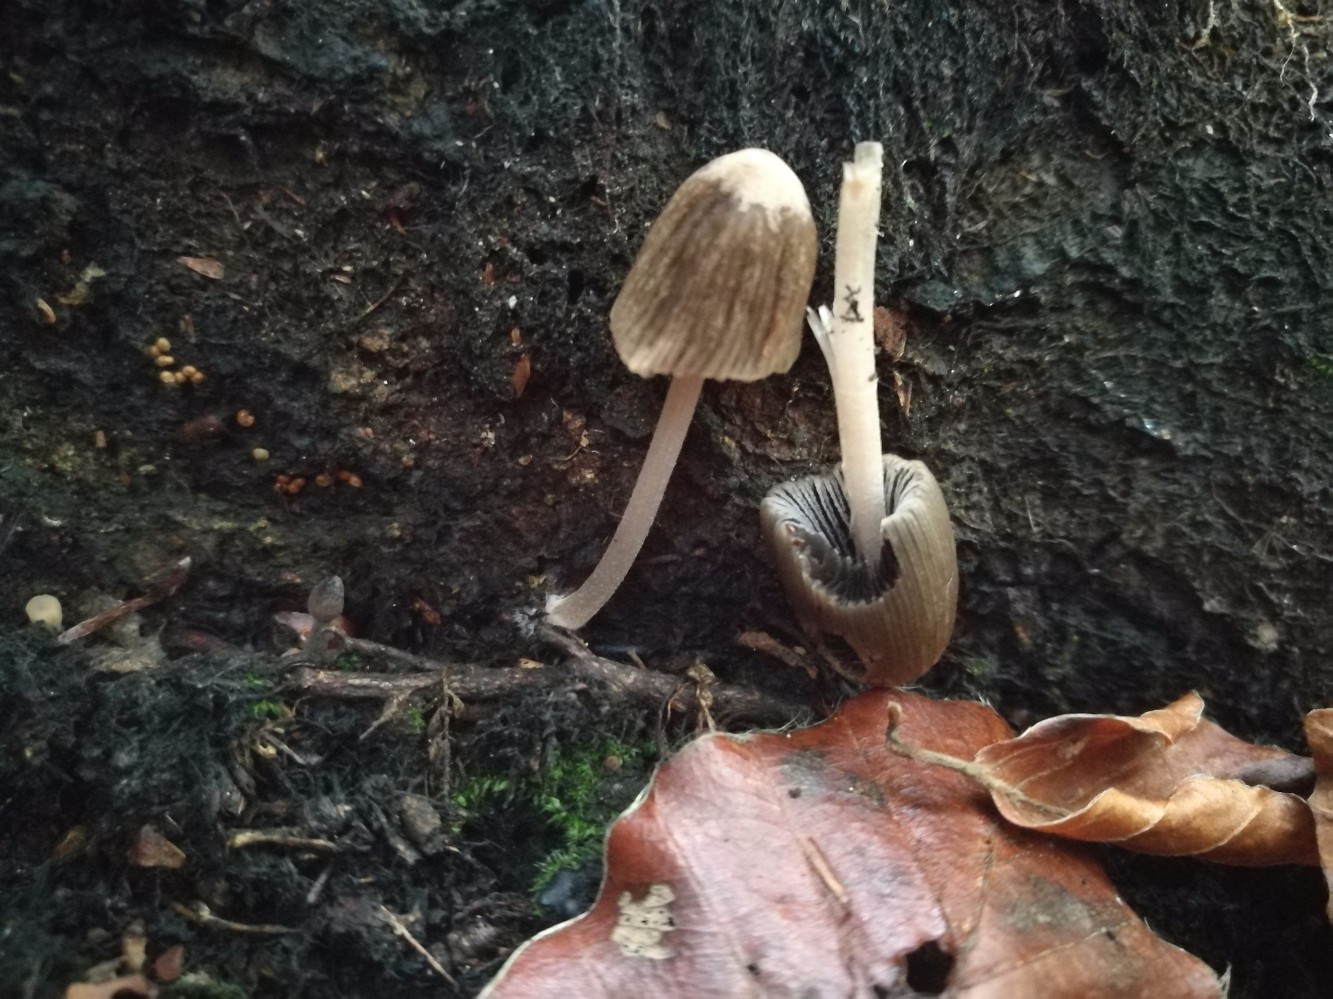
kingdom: Fungi
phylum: Basidiomycota
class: Agaricomycetes
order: Agaricales
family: Psathyrellaceae
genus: Tulosesus
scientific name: Tulosesus angulatus
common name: kul-blækhat
